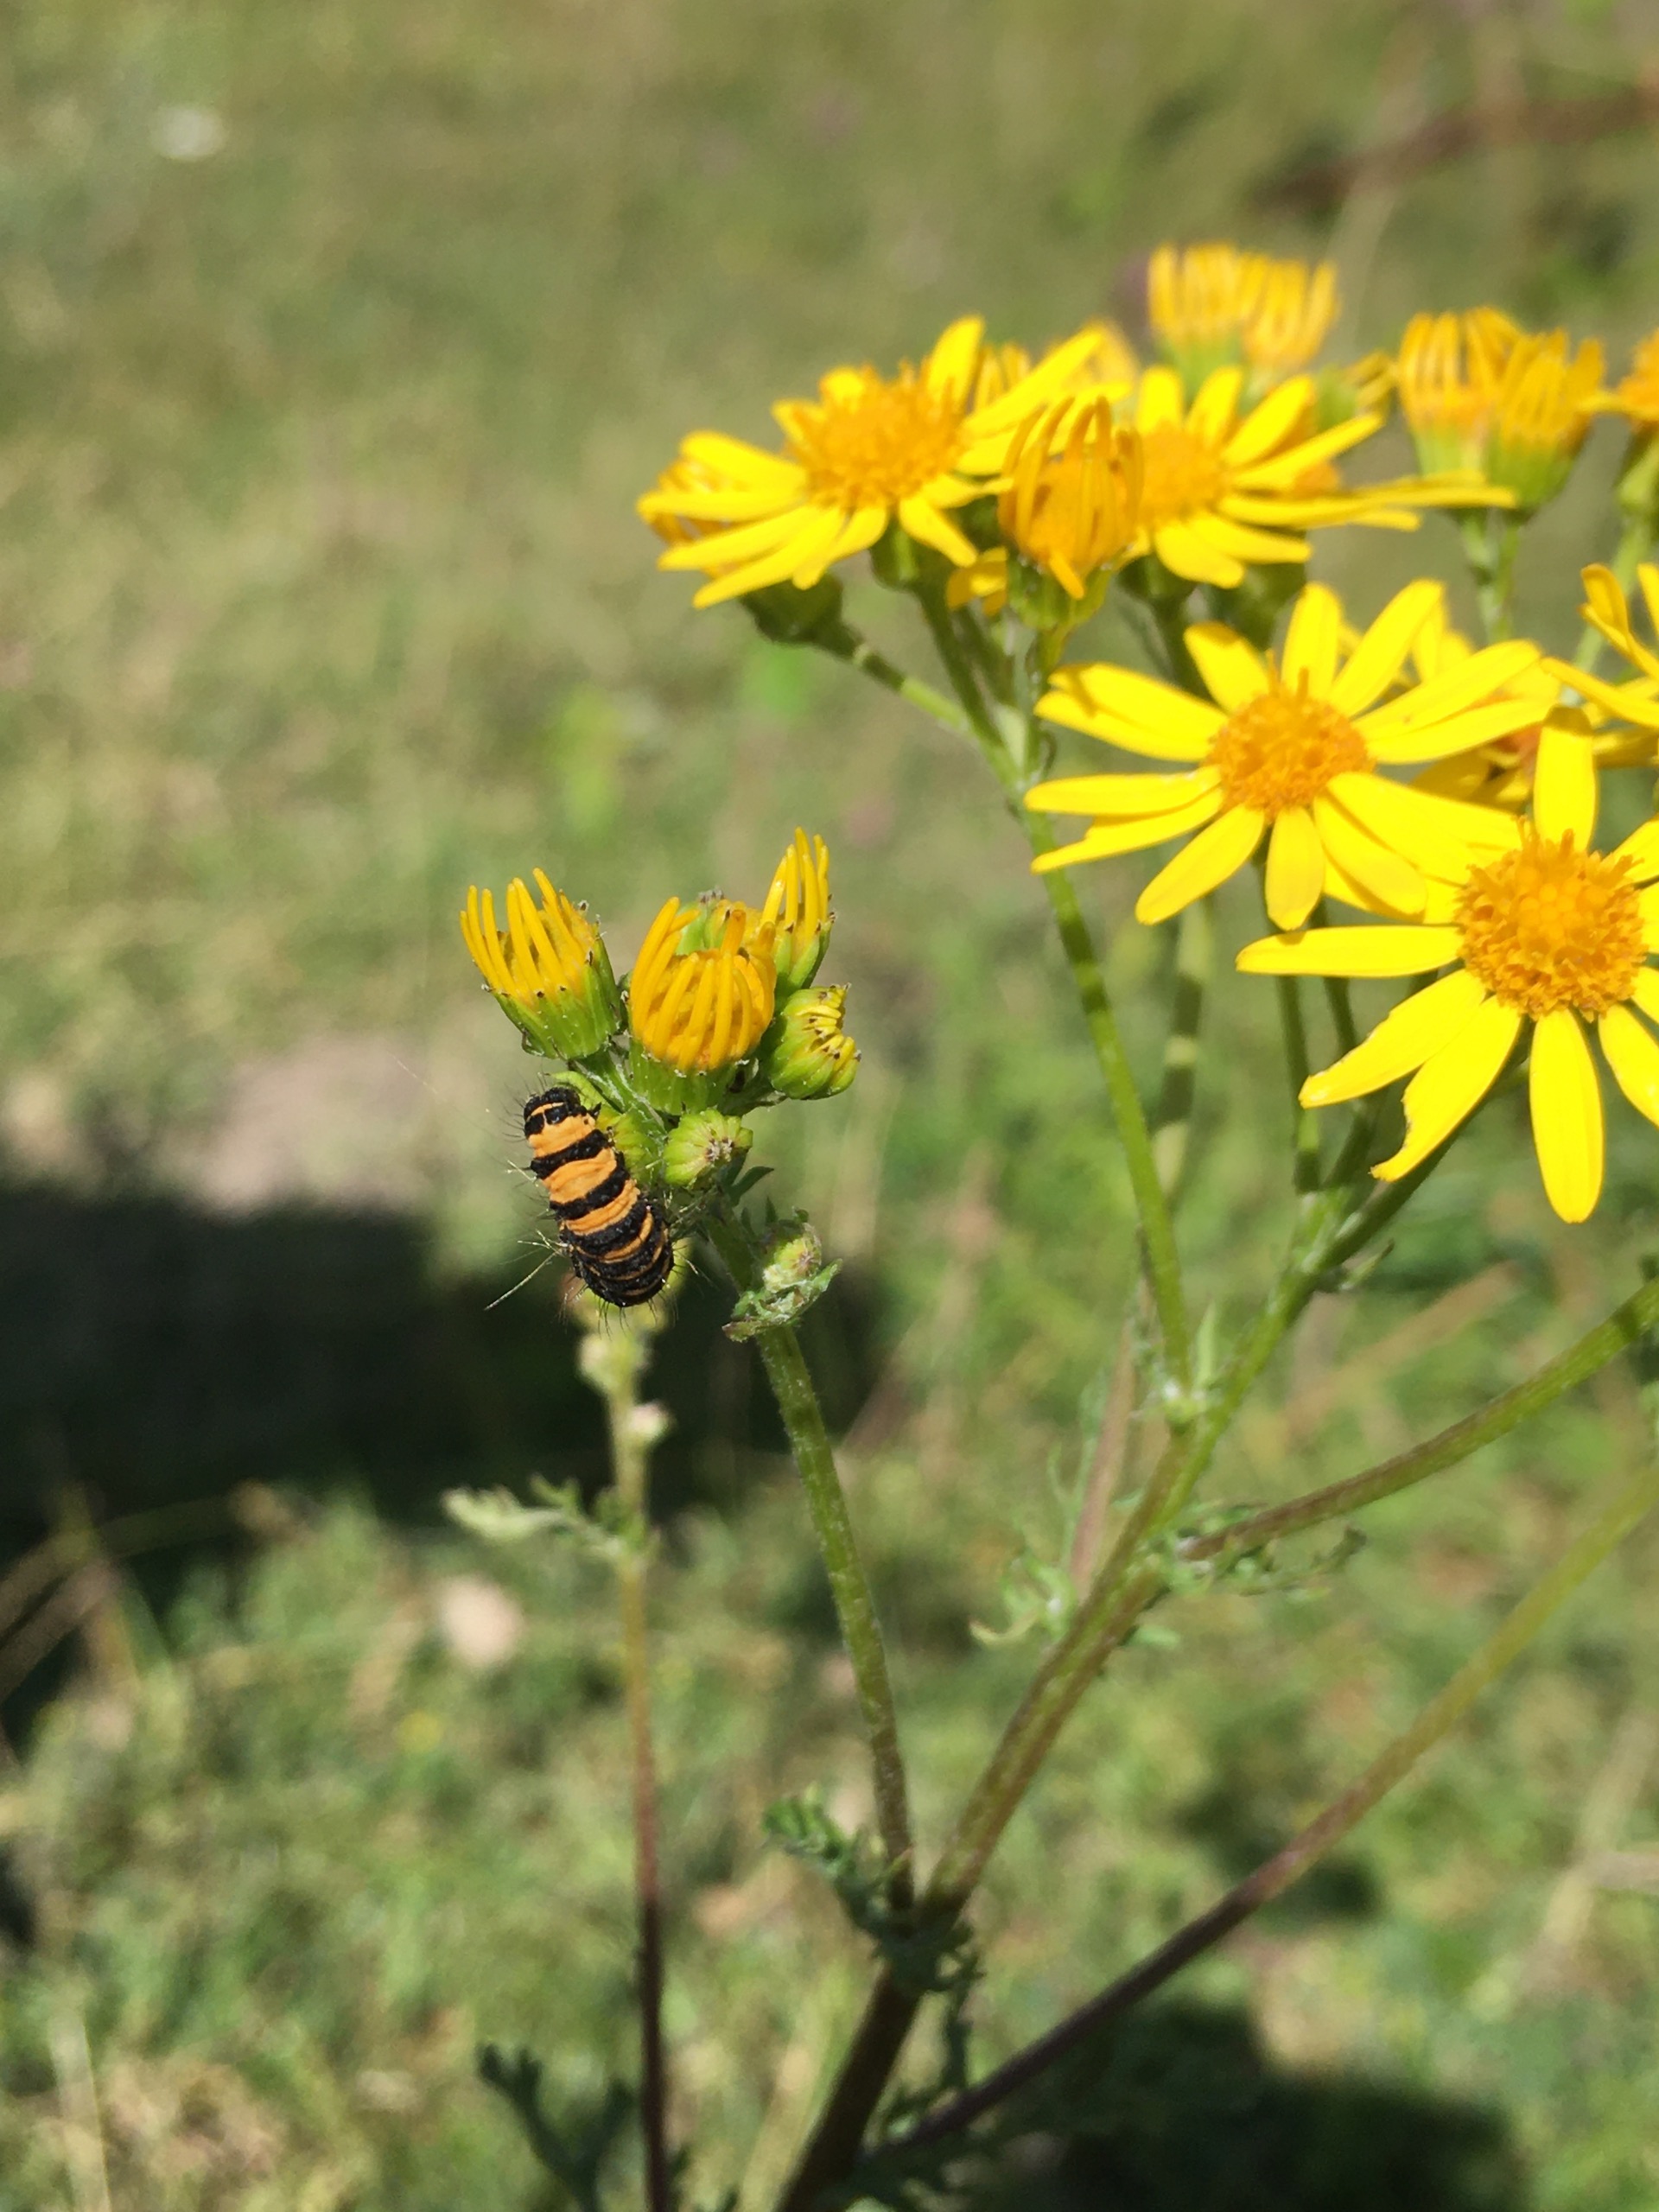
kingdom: Animalia
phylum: Arthropoda
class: Insecta
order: Lepidoptera
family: Erebidae
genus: Tyria
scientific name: Tyria jacobaeae
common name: Blodplet
